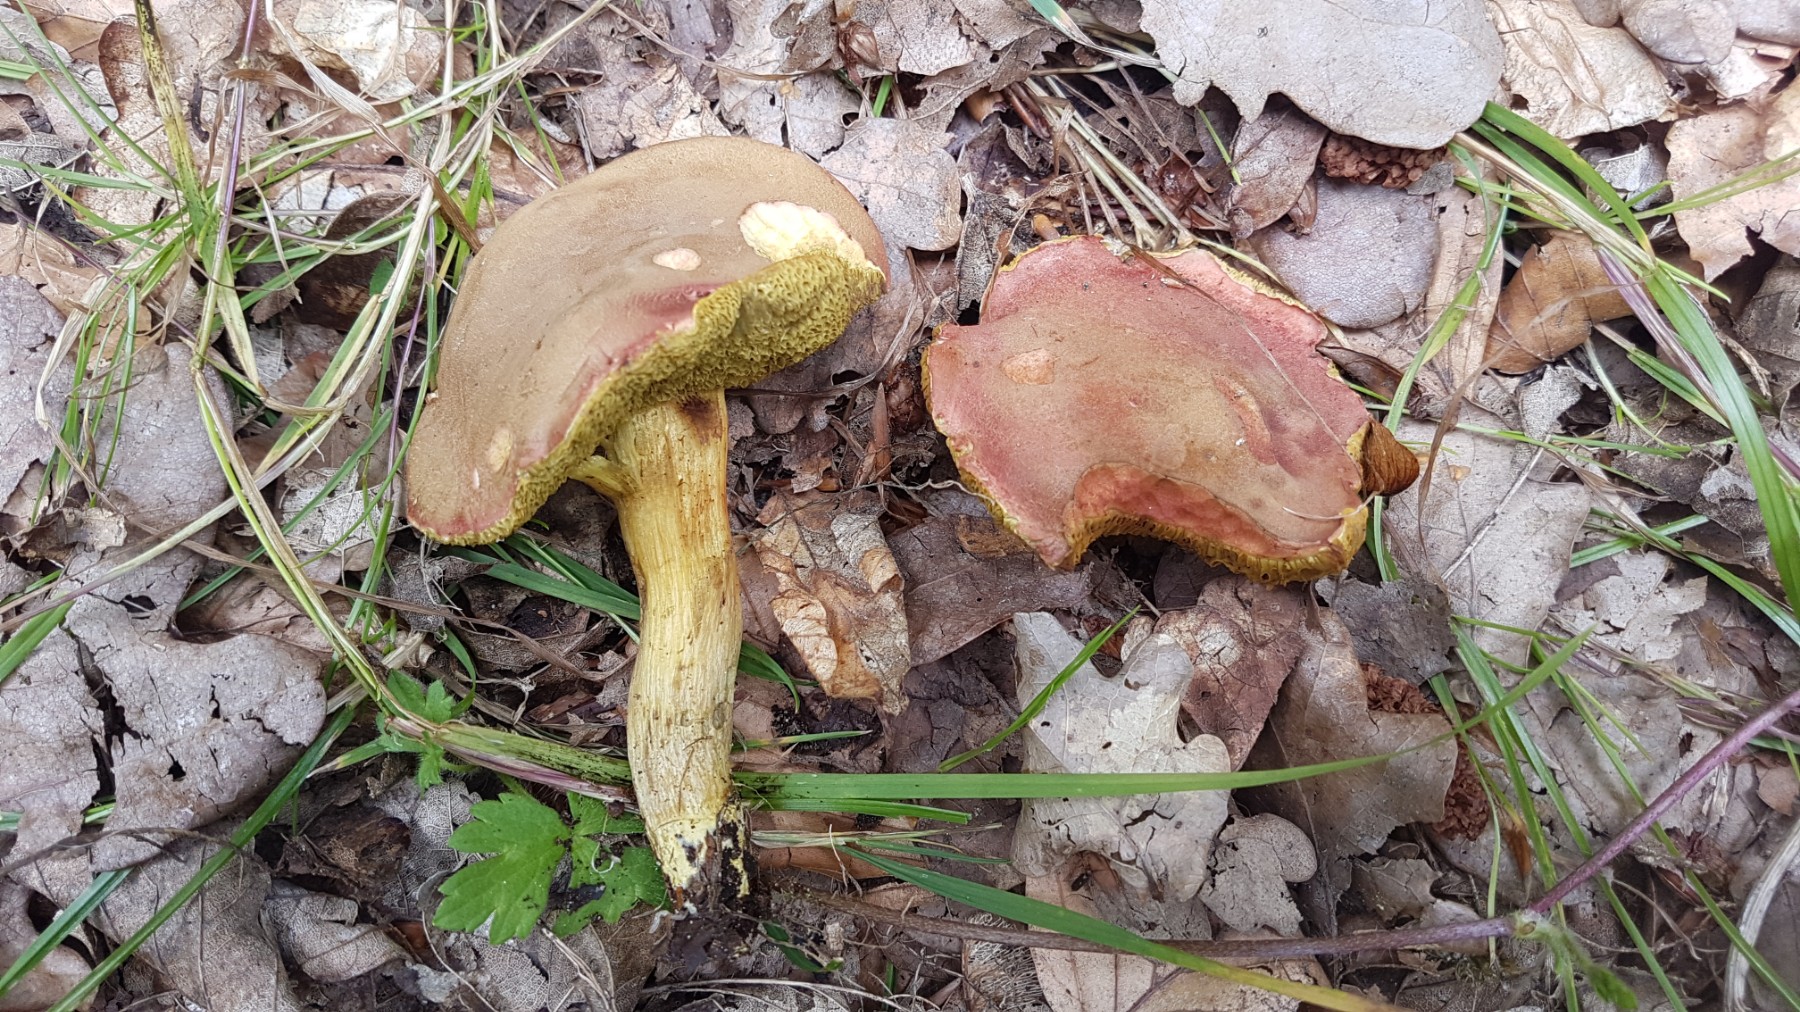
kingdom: Fungi
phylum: Basidiomycota
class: Agaricomycetes
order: Boletales
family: Boletaceae
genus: Hortiboletus
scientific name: Hortiboletus engelii
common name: fersken-rørhat
